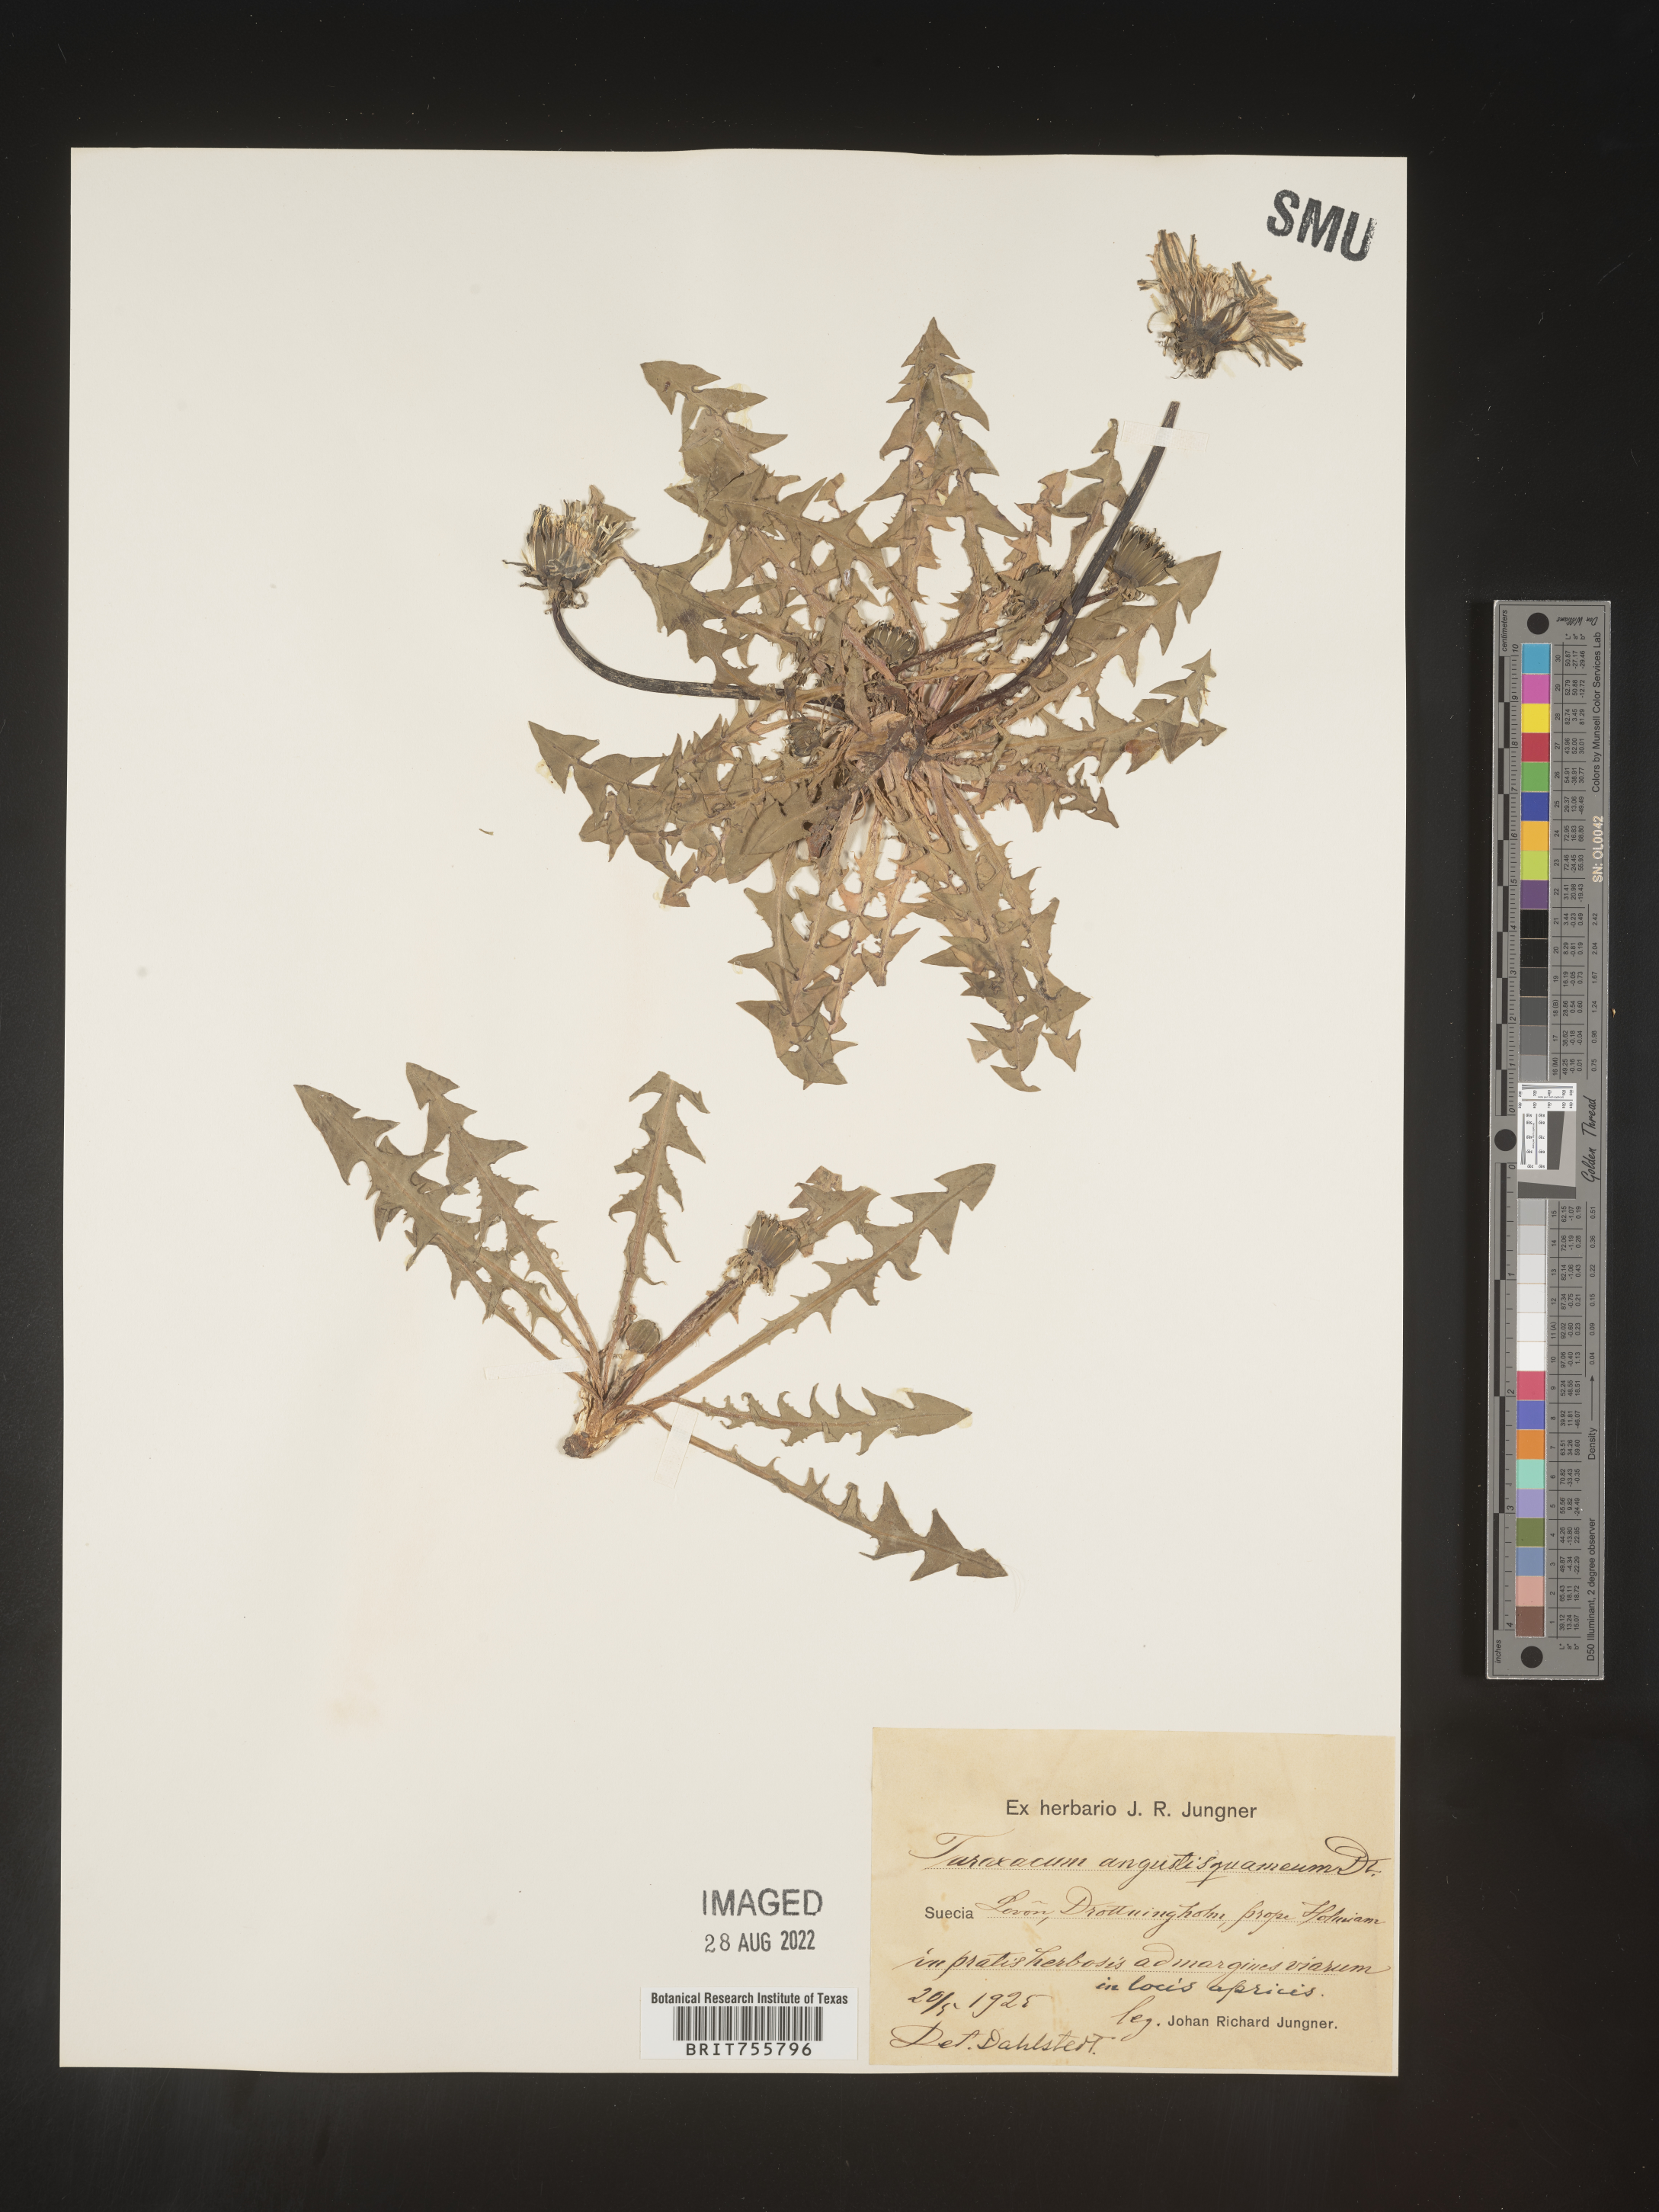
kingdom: Plantae
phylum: Tracheophyta
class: Magnoliopsida
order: Asterales
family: Asteraceae
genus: Taraxacum
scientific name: Taraxacum
